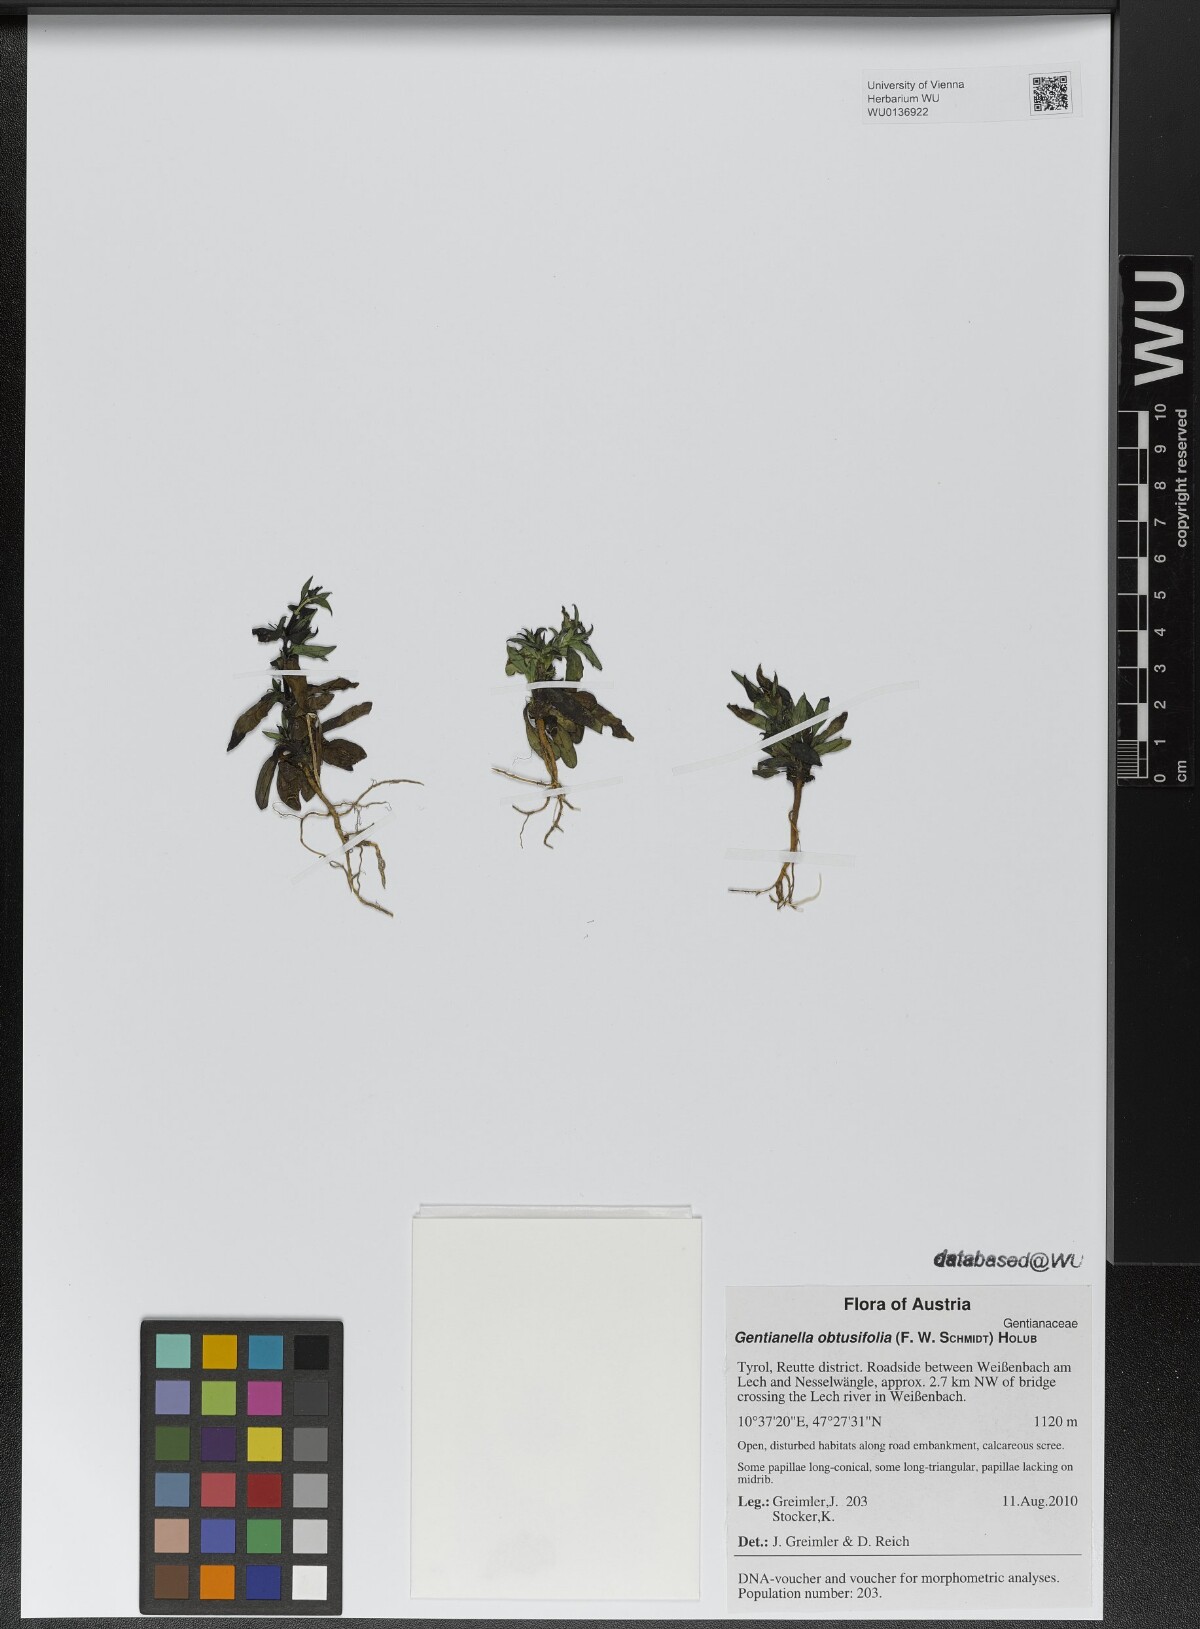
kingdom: Plantae
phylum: Tracheophyta
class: Magnoliopsida
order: Gentianales
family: Gentianaceae
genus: Gentianella
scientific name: Gentianella obtusifolia
